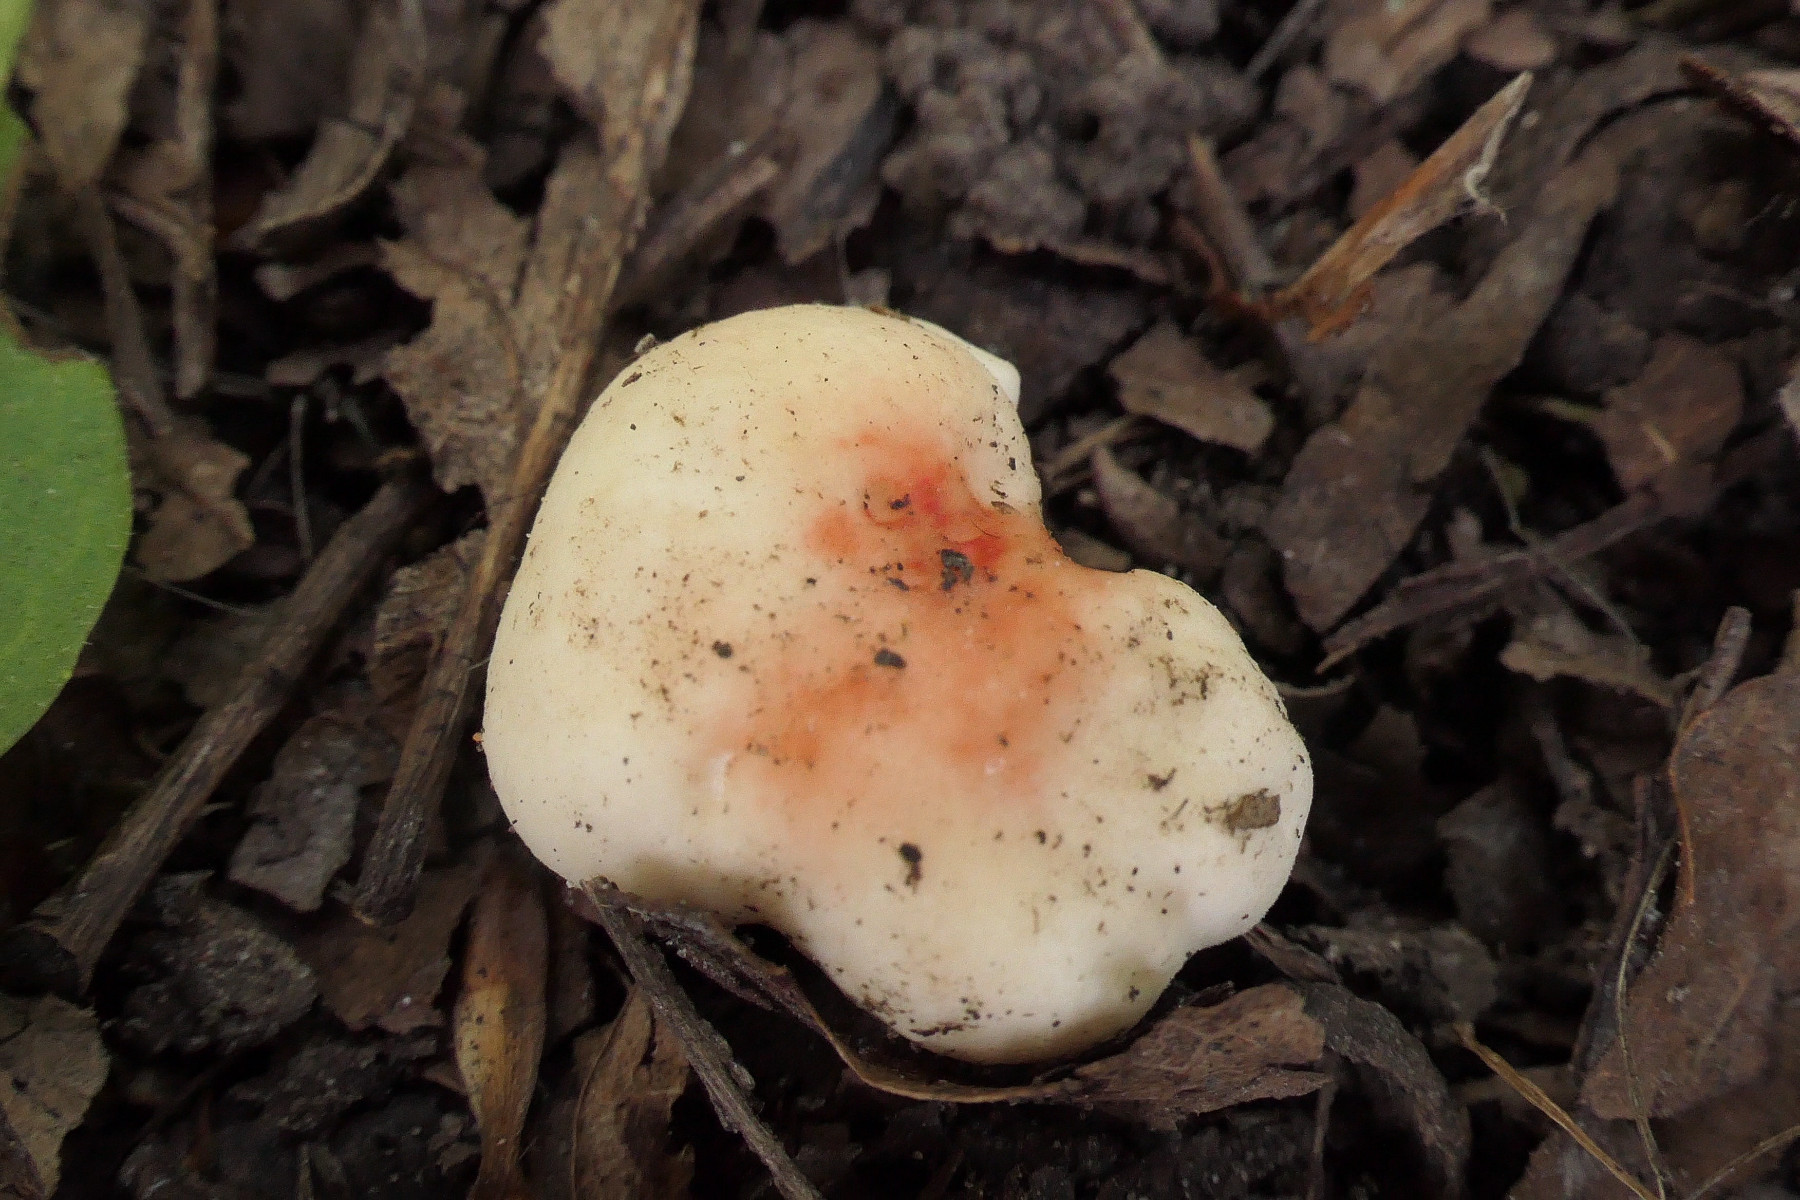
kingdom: Fungi
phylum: Basidiomycota
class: Agaricomycetes
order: Russulales
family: Russulaceae
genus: Russula
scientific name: Russula luteotacta
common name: gulplettet gift-skørhat
